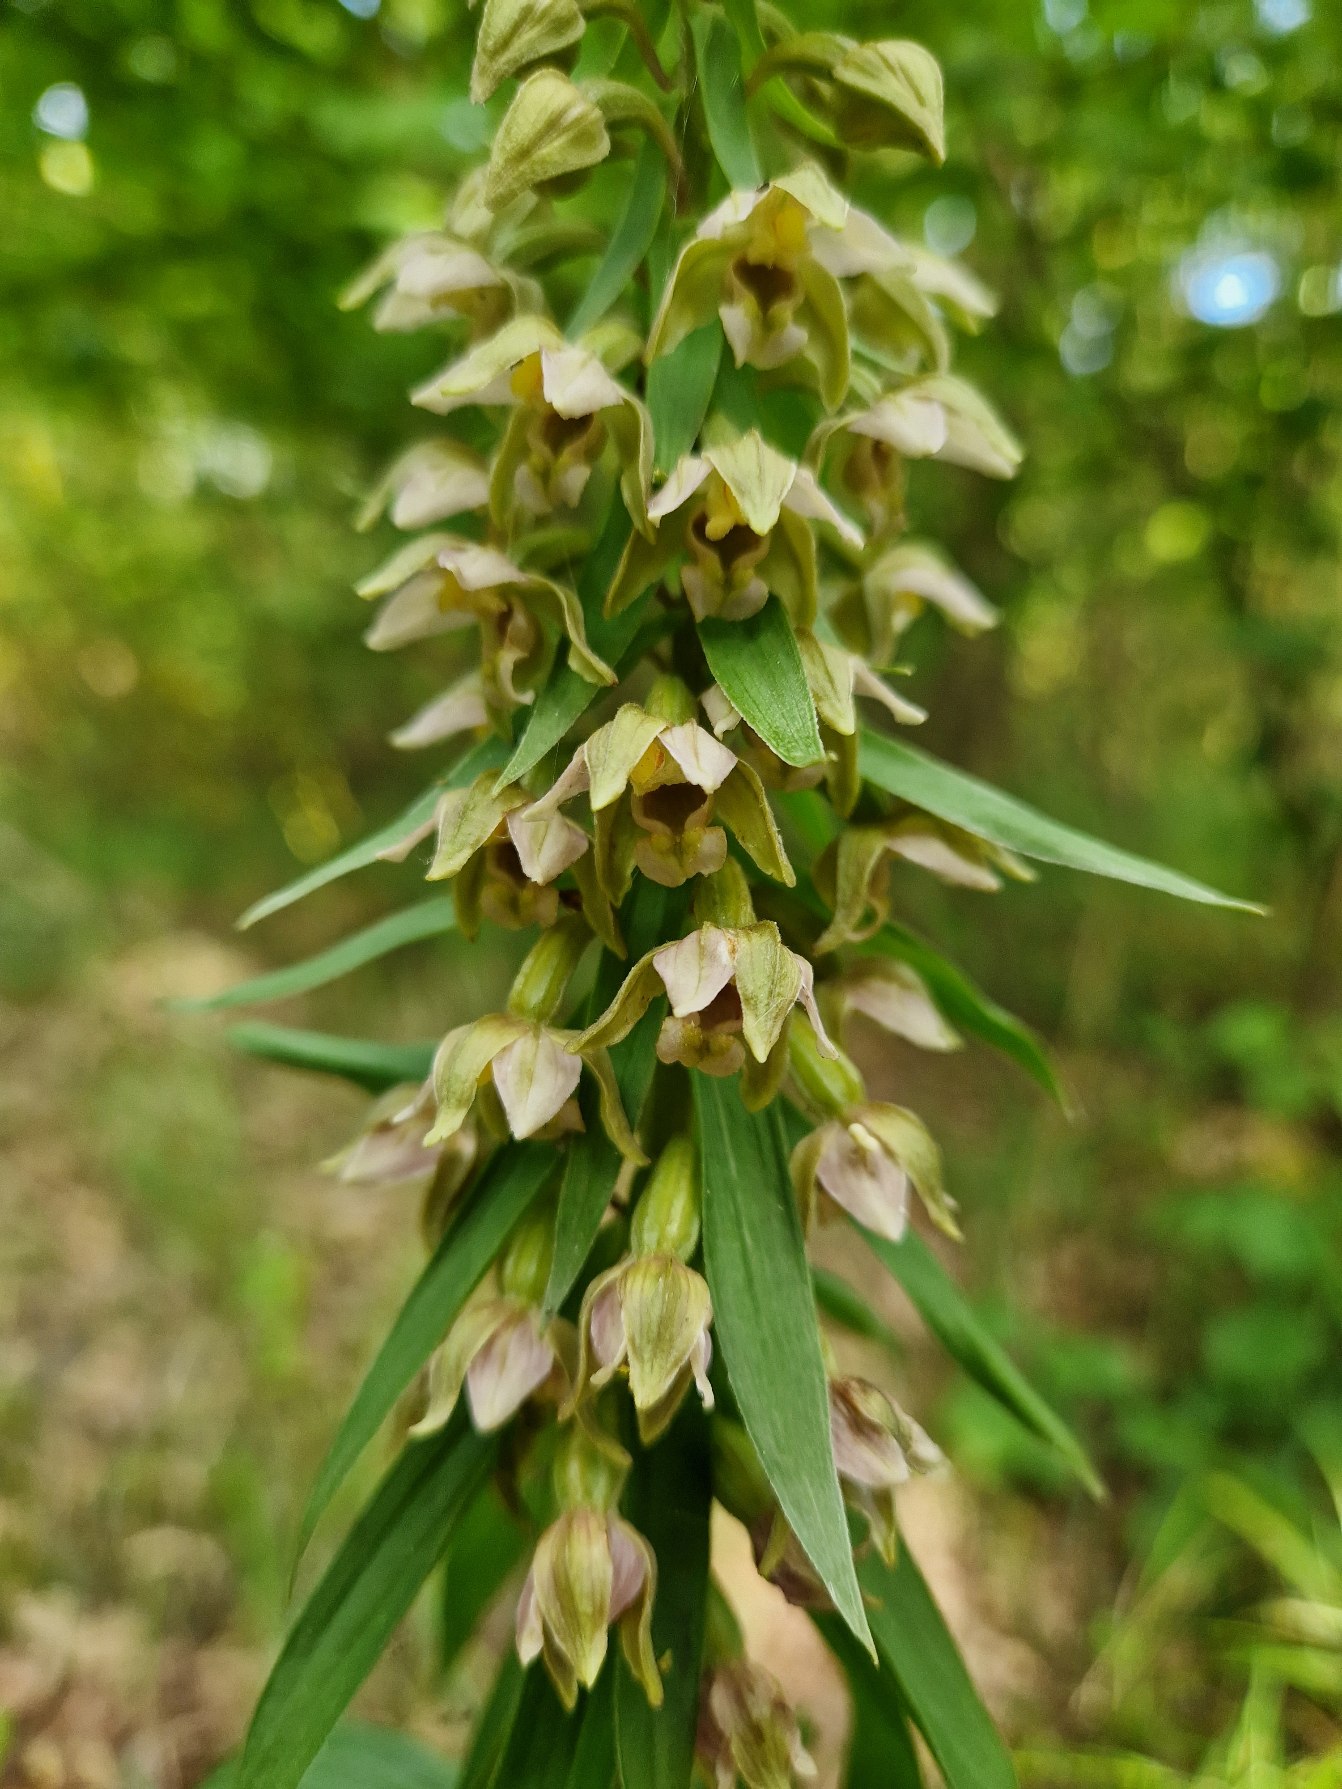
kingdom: Plantae
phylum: Tracheophyta
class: Liliopsida
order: Asparagales
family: Orchidaceae
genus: Epipactis
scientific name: Epipactis helleborine
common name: Skov-hullæbe
